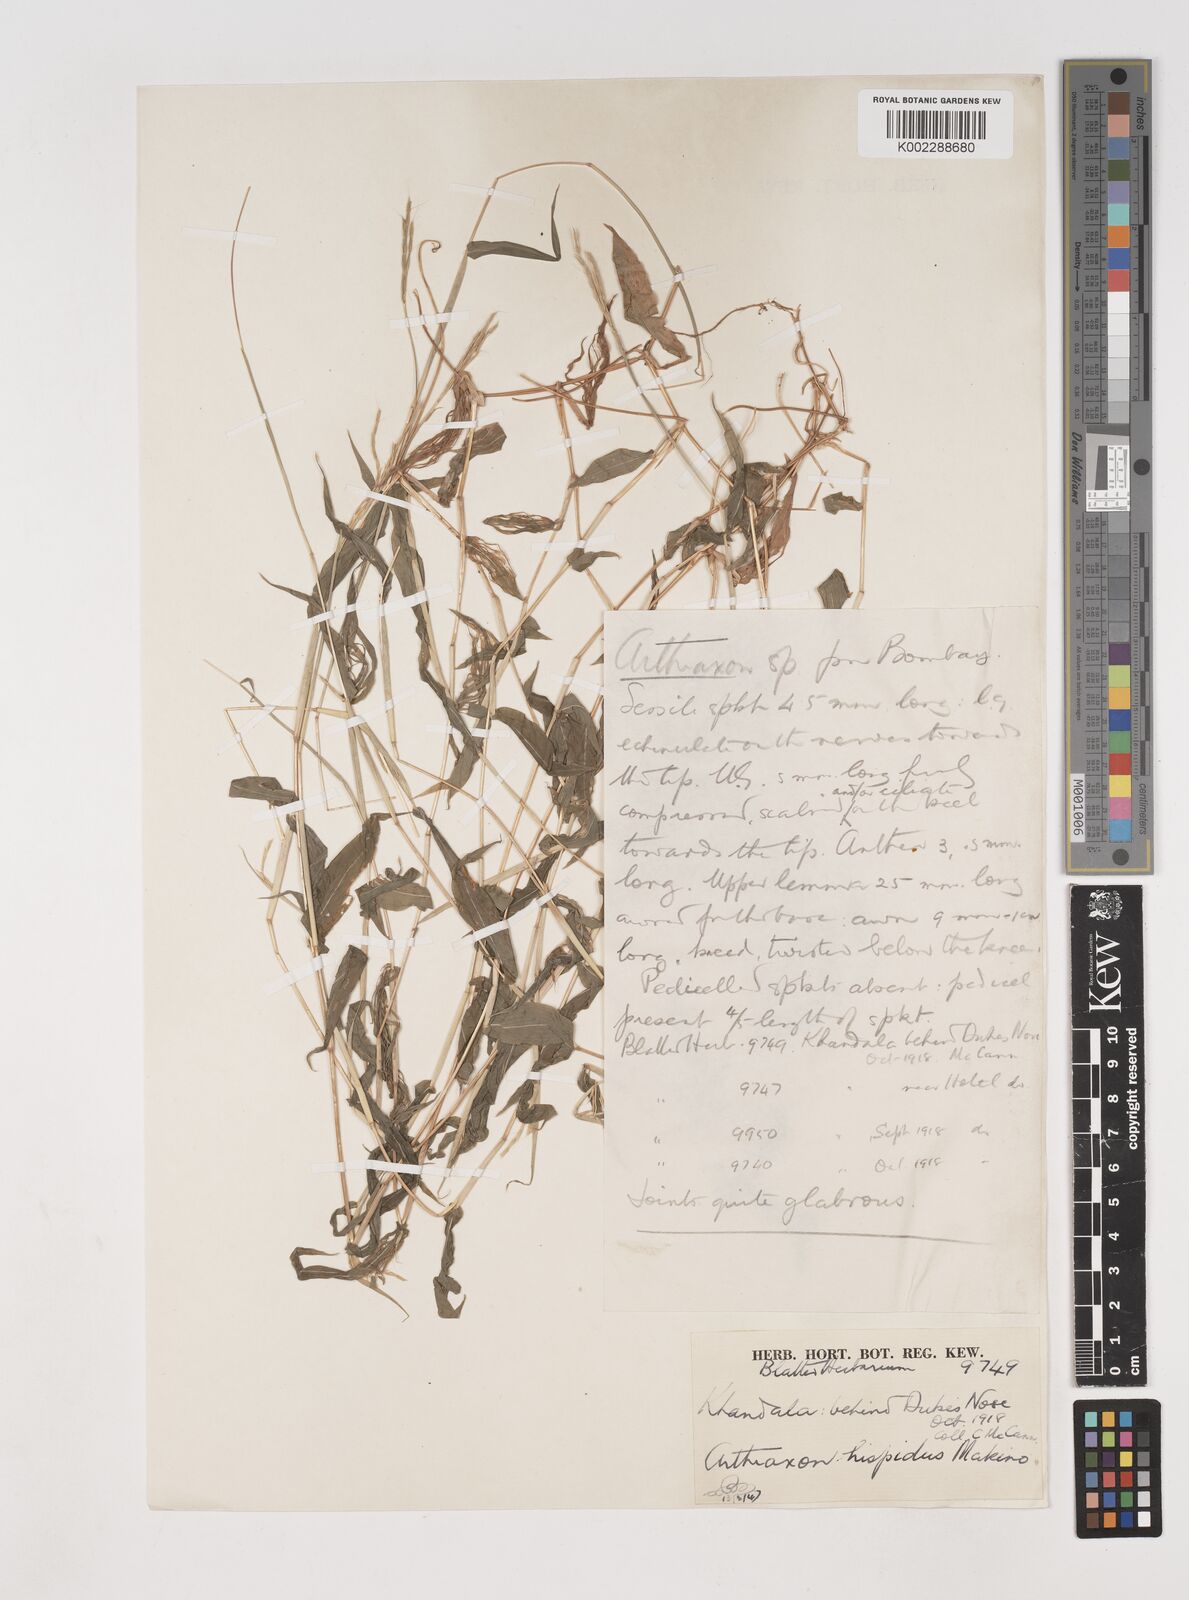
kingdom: Plantae
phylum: Tracheophyta
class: Liliopsida
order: Poales
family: Poaceae
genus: Arthraxon
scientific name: Arthraxon nudus
